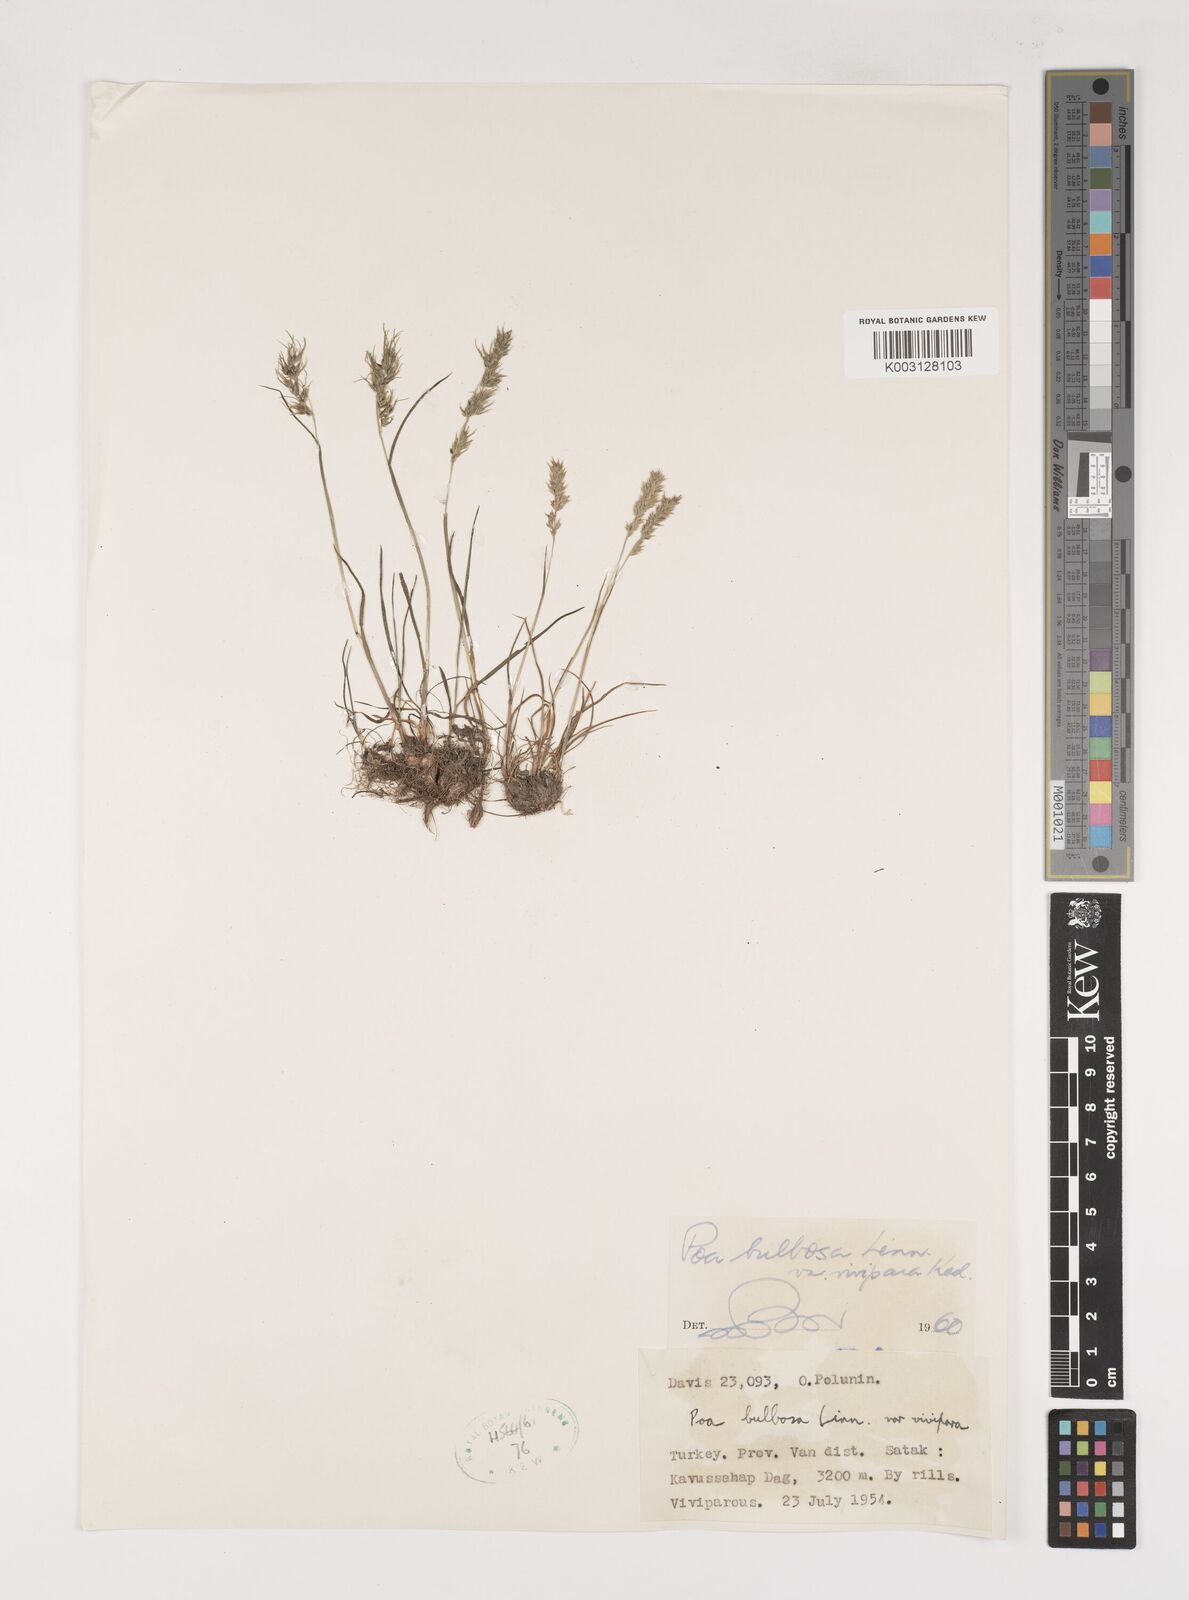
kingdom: Plantae
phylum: Tracheophyta
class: Liliopsida
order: Poales
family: Poaceae
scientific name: Poaceae
